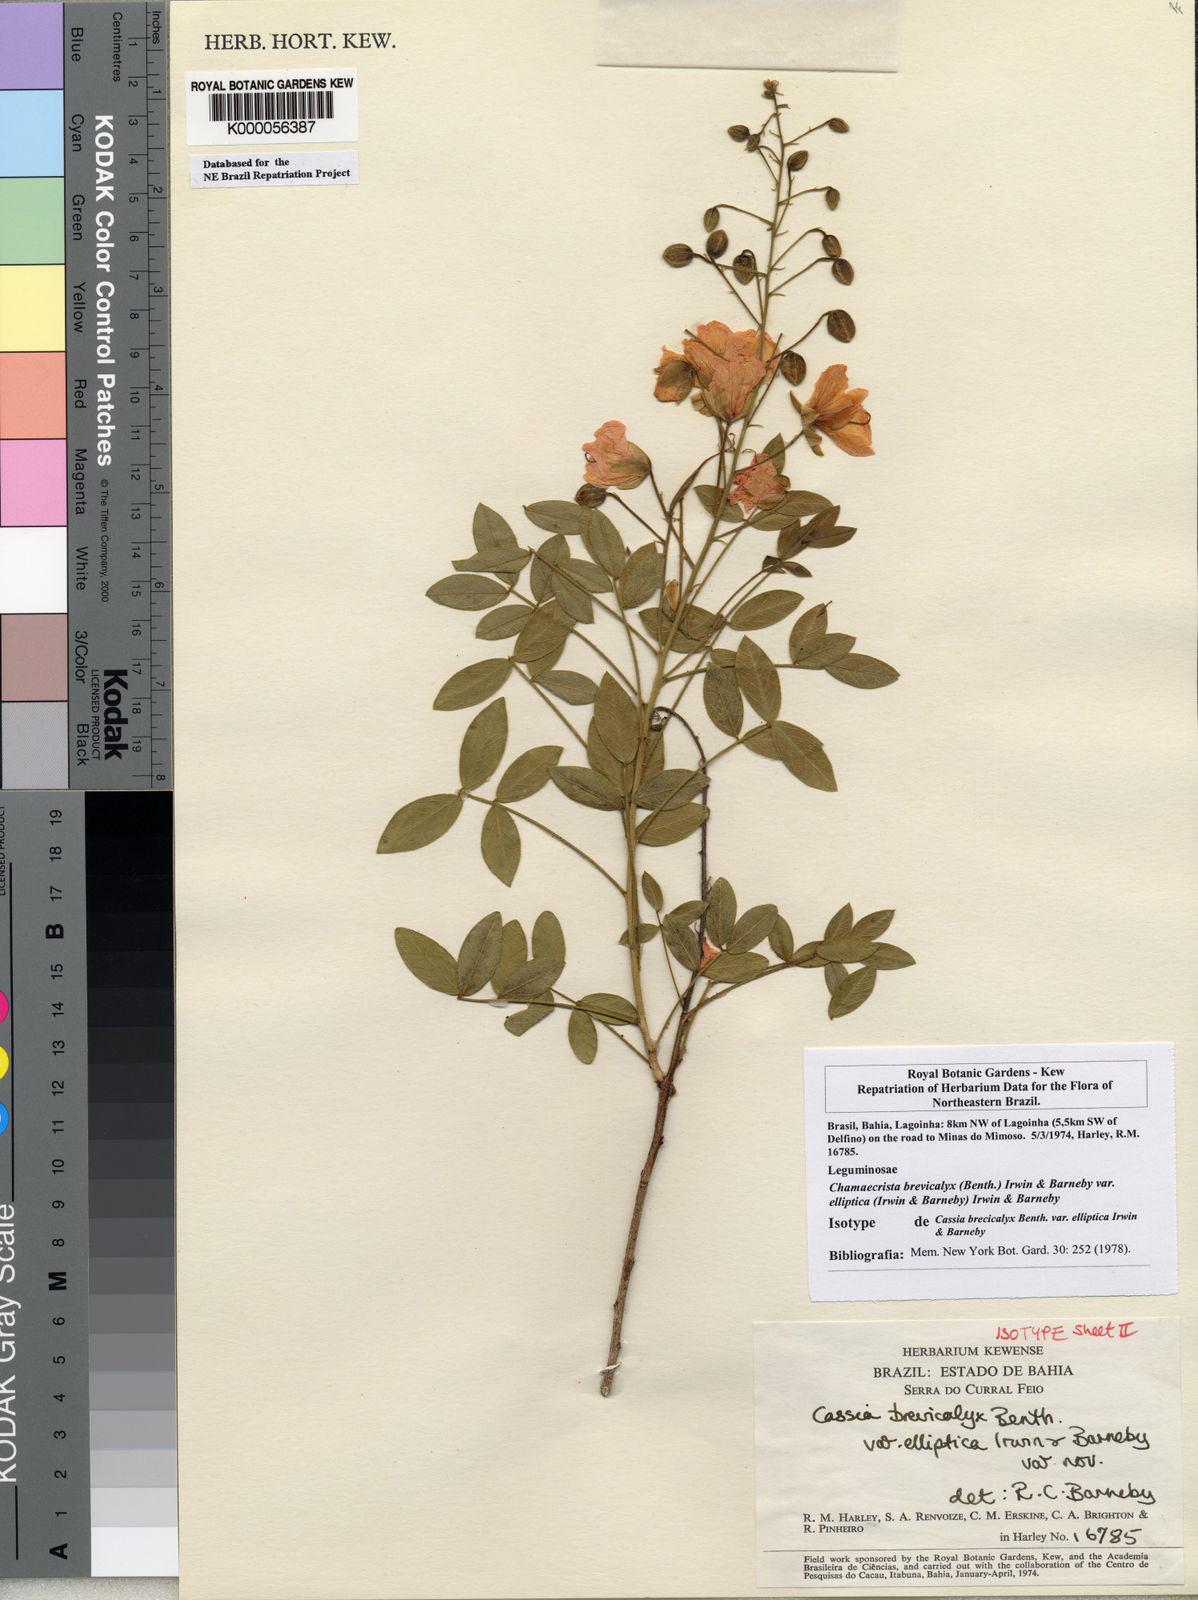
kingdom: Plantae
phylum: Tracheophyta
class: Magnoliopsida
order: Fabales
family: Fabaceae
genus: Chamaecrista
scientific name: Chamaecrista brevicalyx
